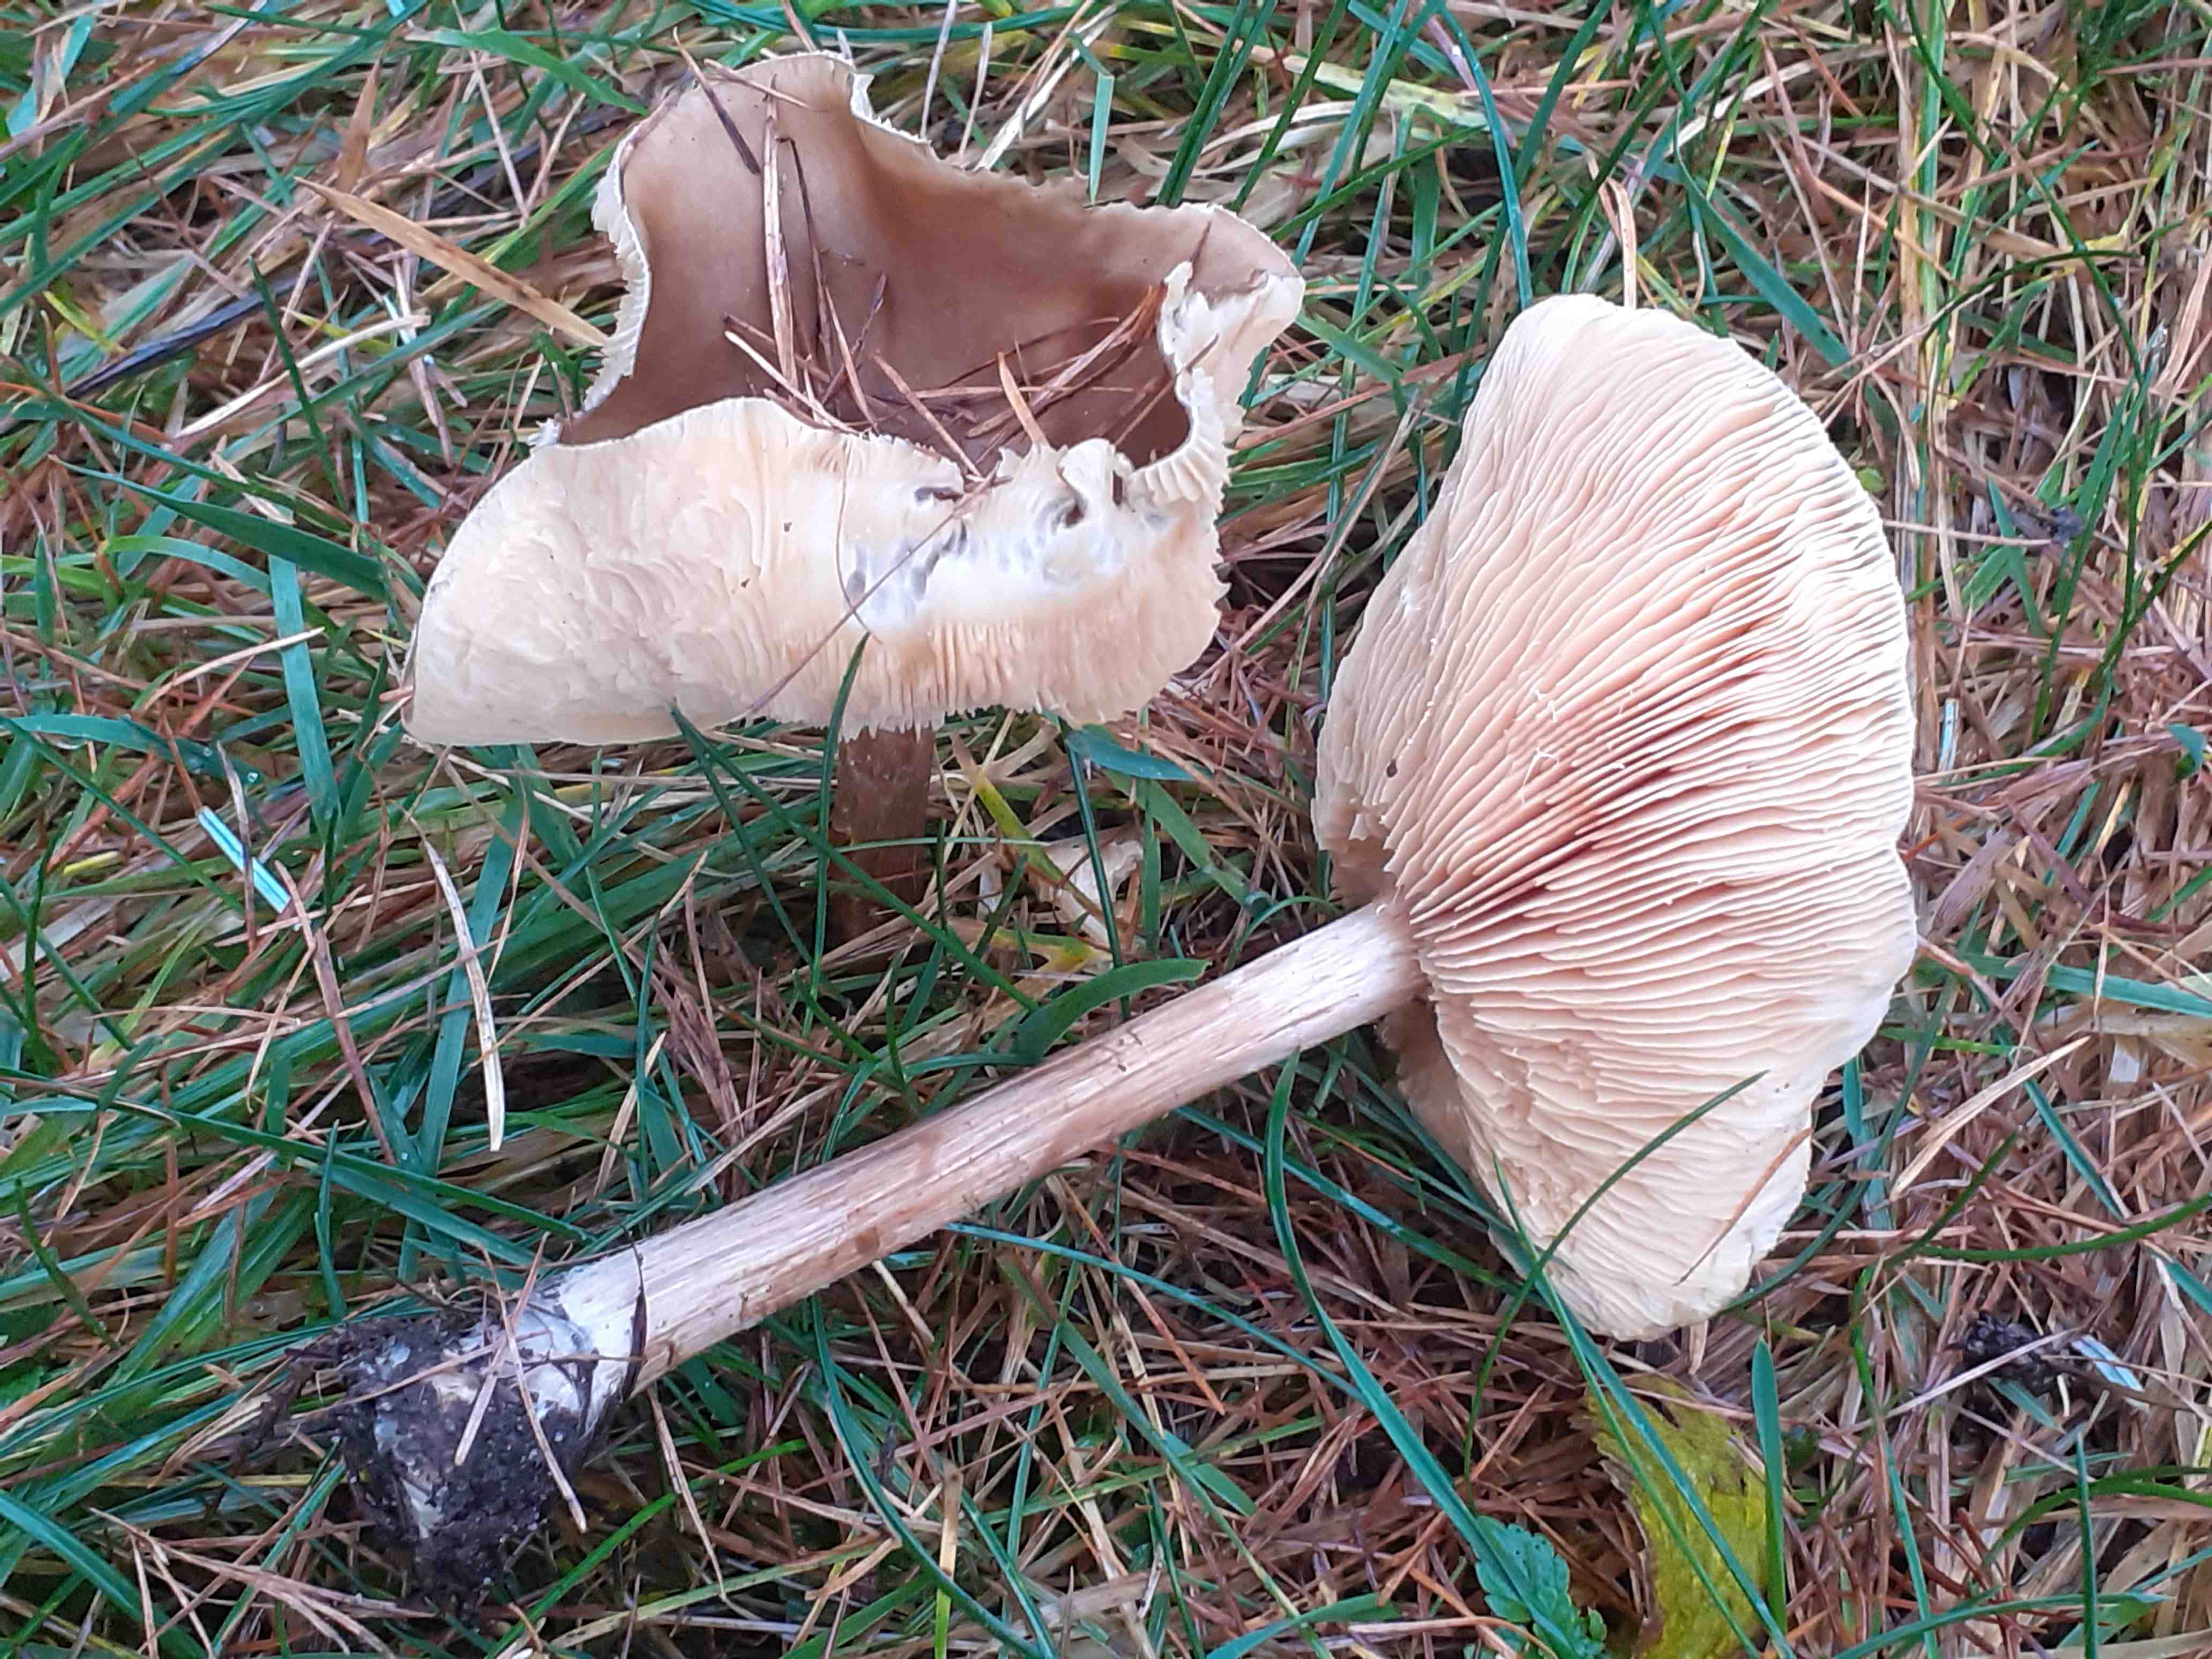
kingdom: Fungi
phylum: Basidiomycota
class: Agaricomycetes
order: Agaricales
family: Tricholomataceae
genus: Melanoleuca
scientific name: Melanoleuca cognata
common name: gyldengrå munkehat
